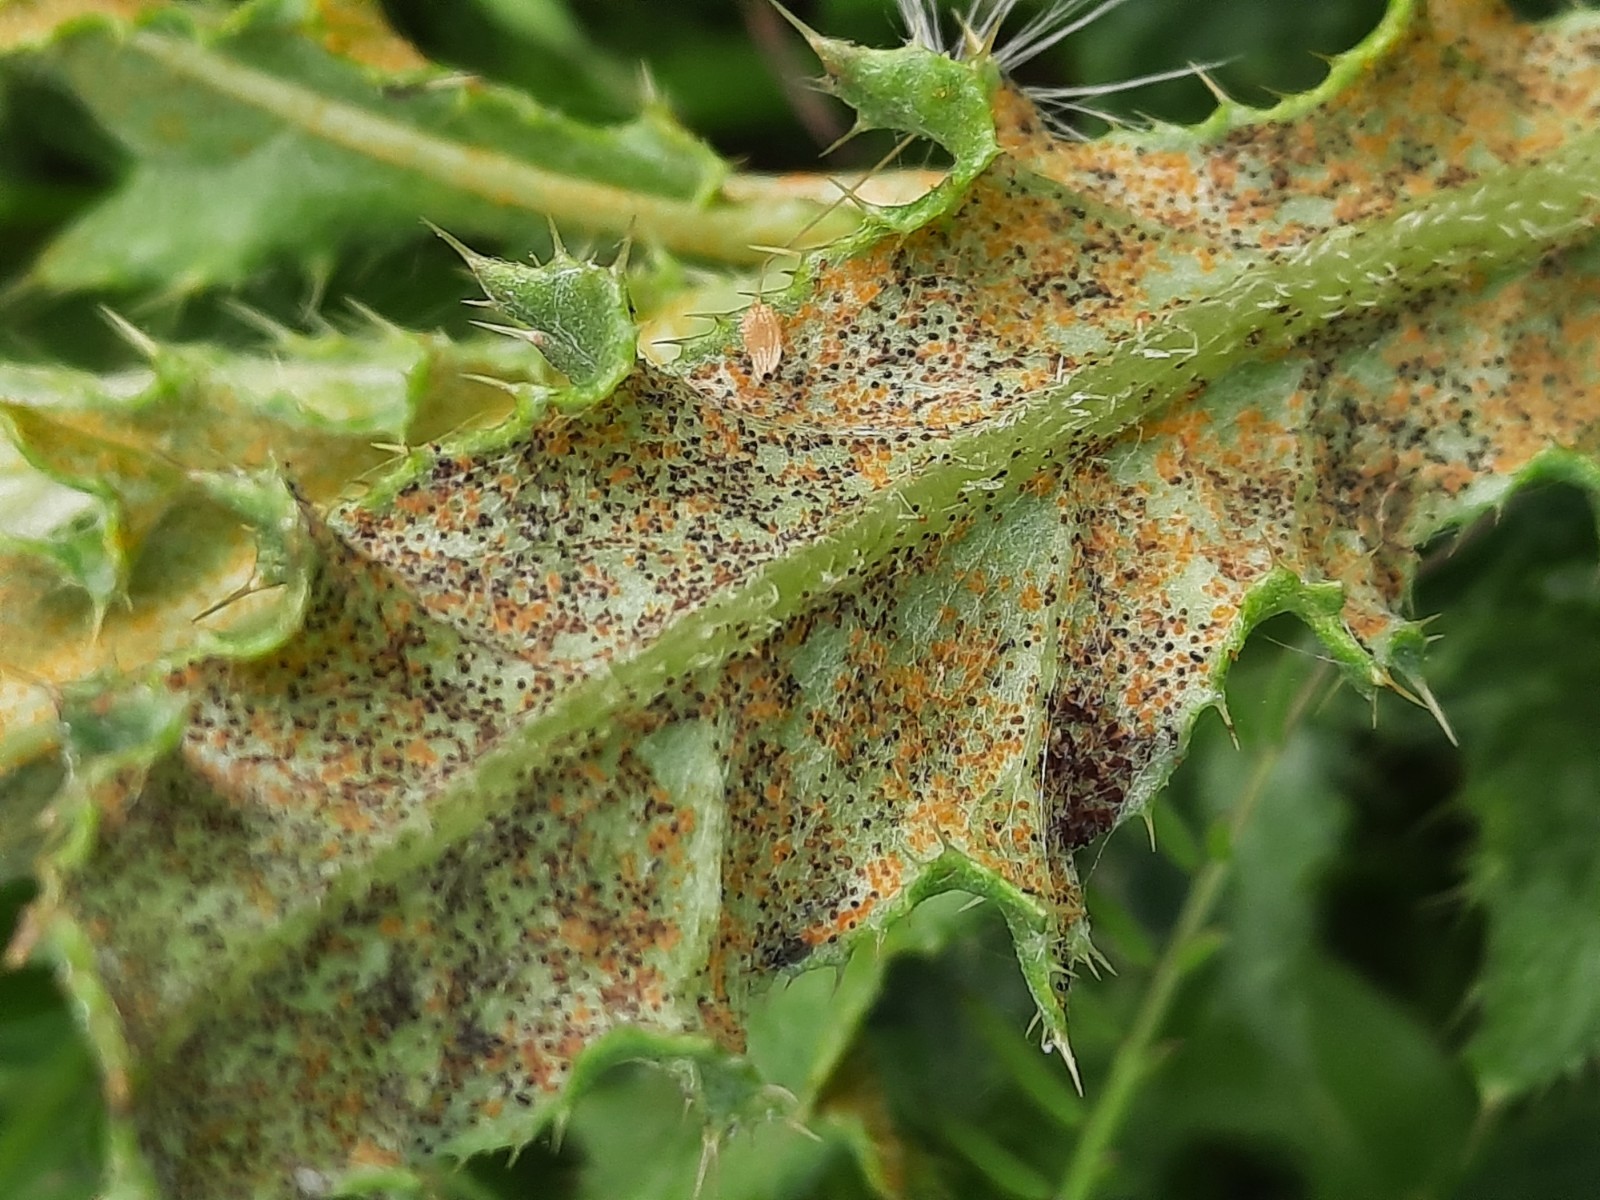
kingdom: Fungi
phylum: Basidiomycota
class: Pucciniomycetes
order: Pucciniales
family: Pucciniaceae
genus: Puccinia
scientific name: Puccinia suaveolens
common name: tidsel-tvecellerust
